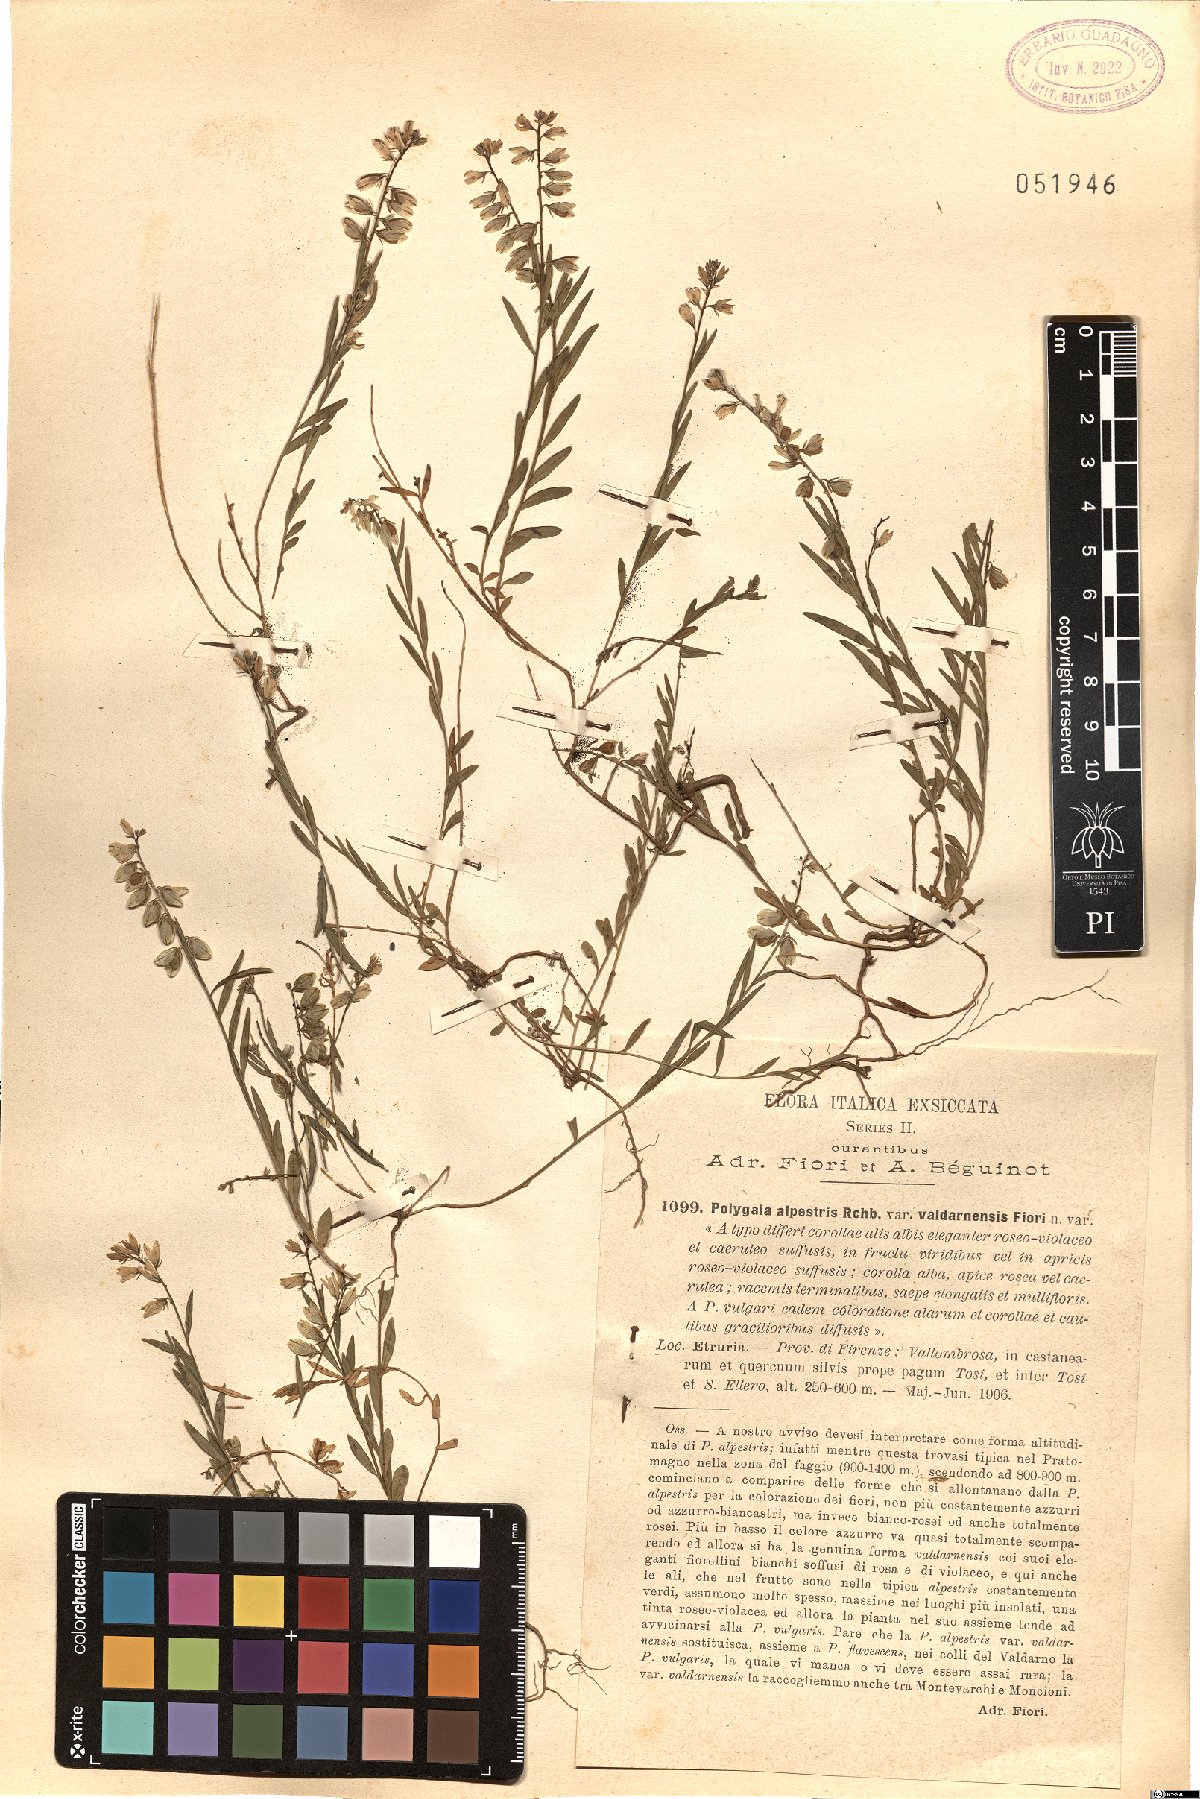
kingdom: Plantae
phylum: Tracheophyta
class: Magnoliopsida
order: Fabales
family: Polygalaceae
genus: Polygala
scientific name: Polygala vulgaris
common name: Common milkwort
